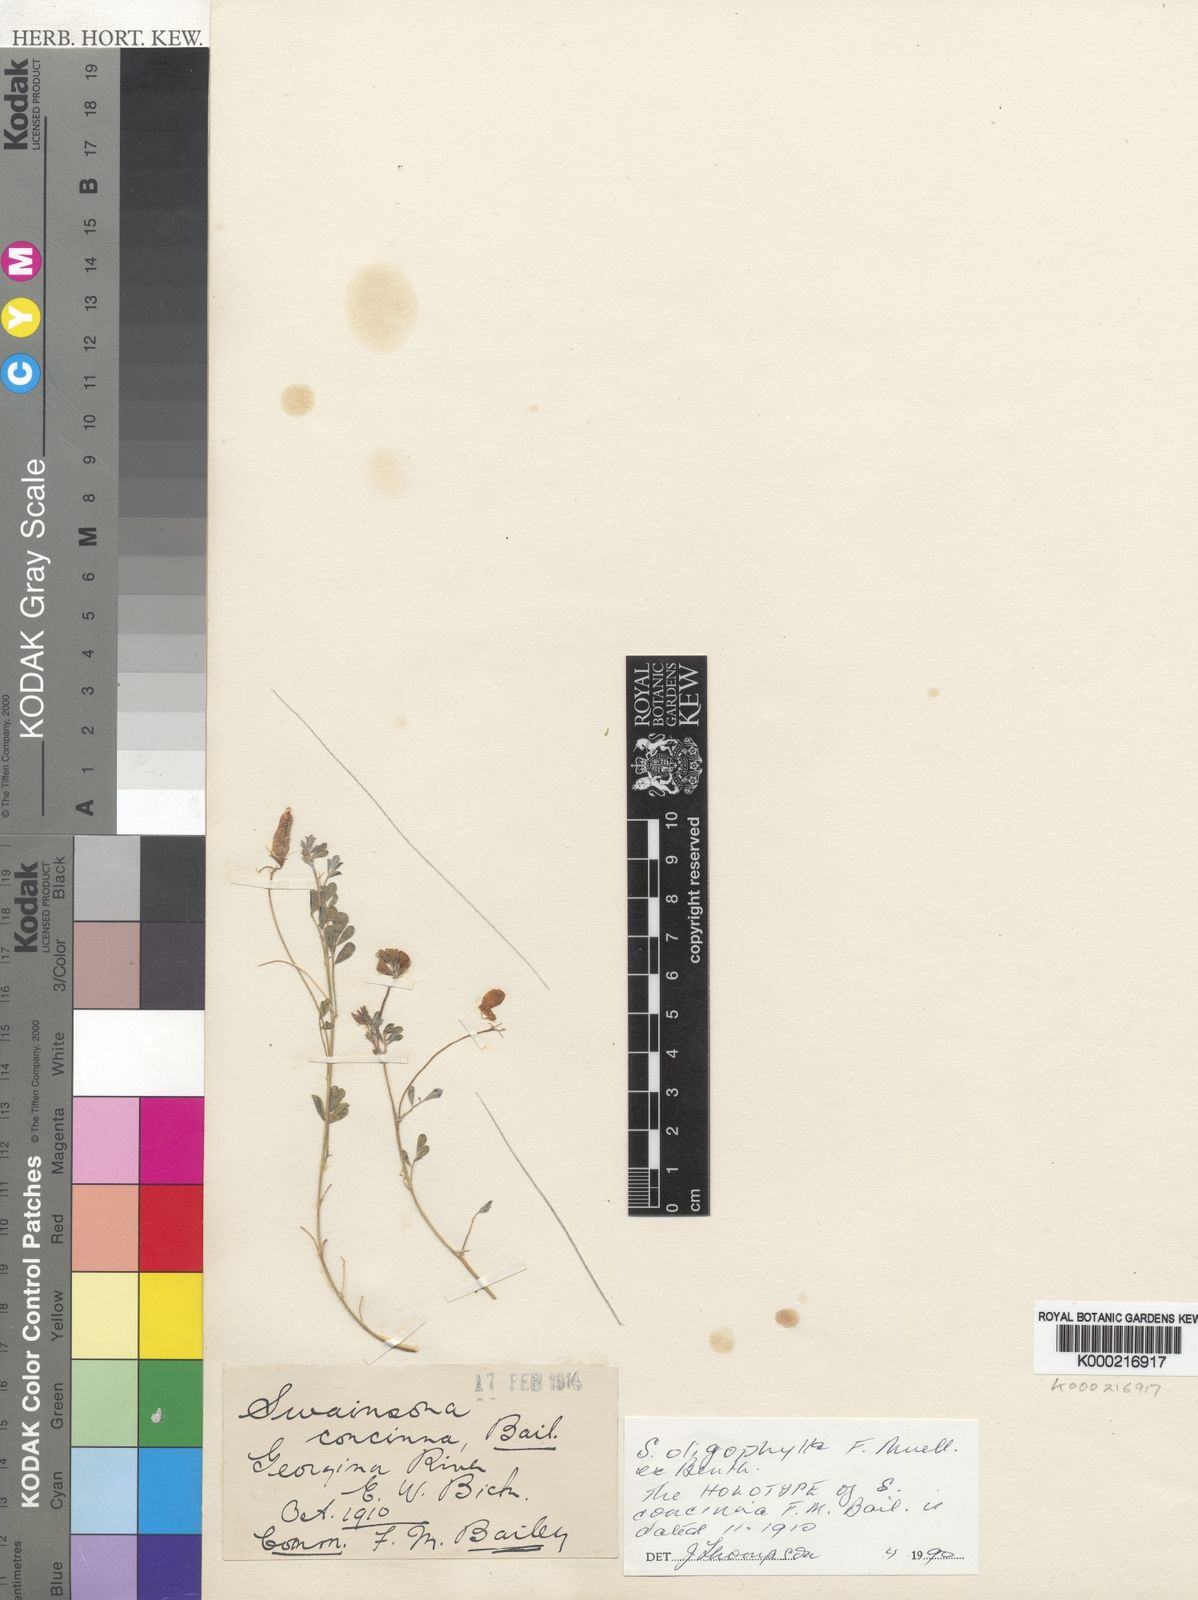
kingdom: Plantae
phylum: Tracheophyta
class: Magnoliopsida
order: Fabales
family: Fabaceae
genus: Swainsona
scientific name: Swainsona oligophylla
